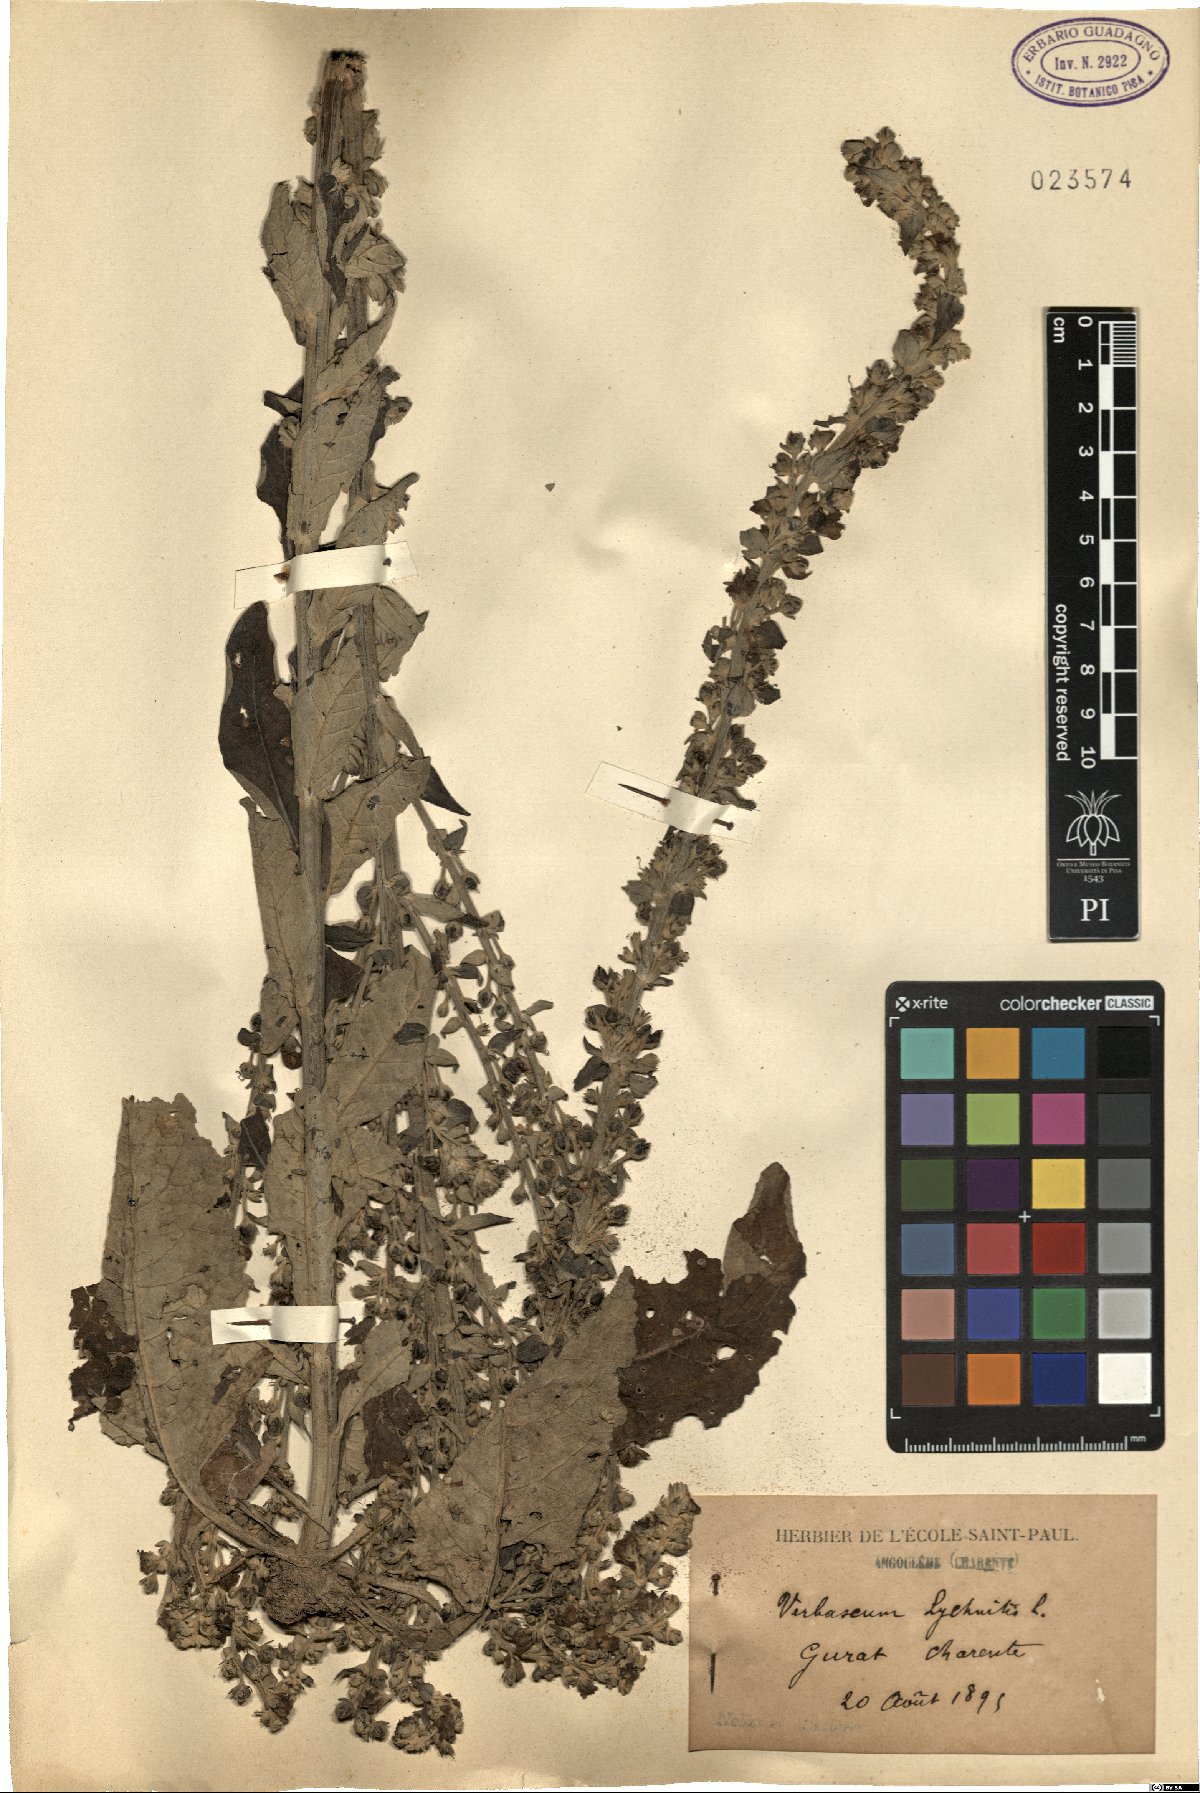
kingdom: Plantae
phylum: Tracheophyta
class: Magnoliopsida
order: Lamiales
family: Scrophulariaceae
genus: Verbascum
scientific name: Verbascum lychnitis
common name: White mullein
